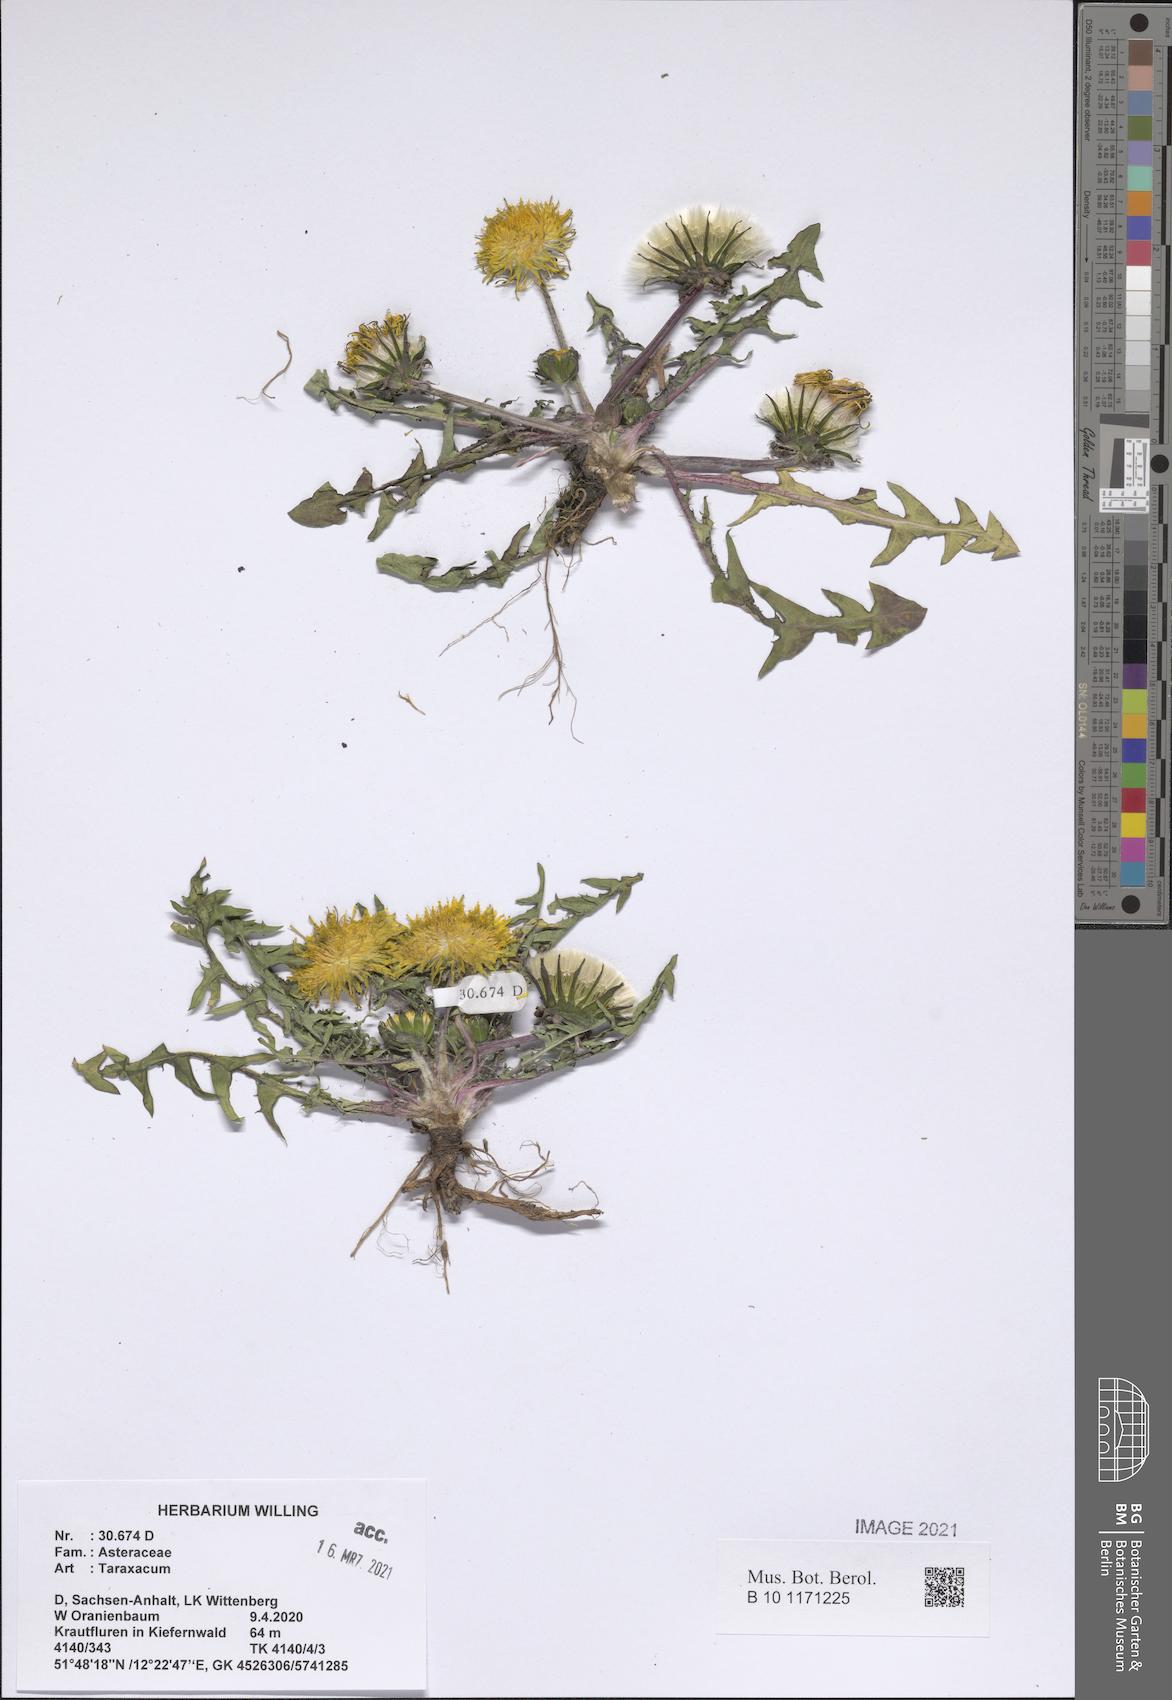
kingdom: Plantae
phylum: Tracheophyta
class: Magnoliopsida
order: Asterales
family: Asteraceae
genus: Taraxacum
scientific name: Taraxacum
